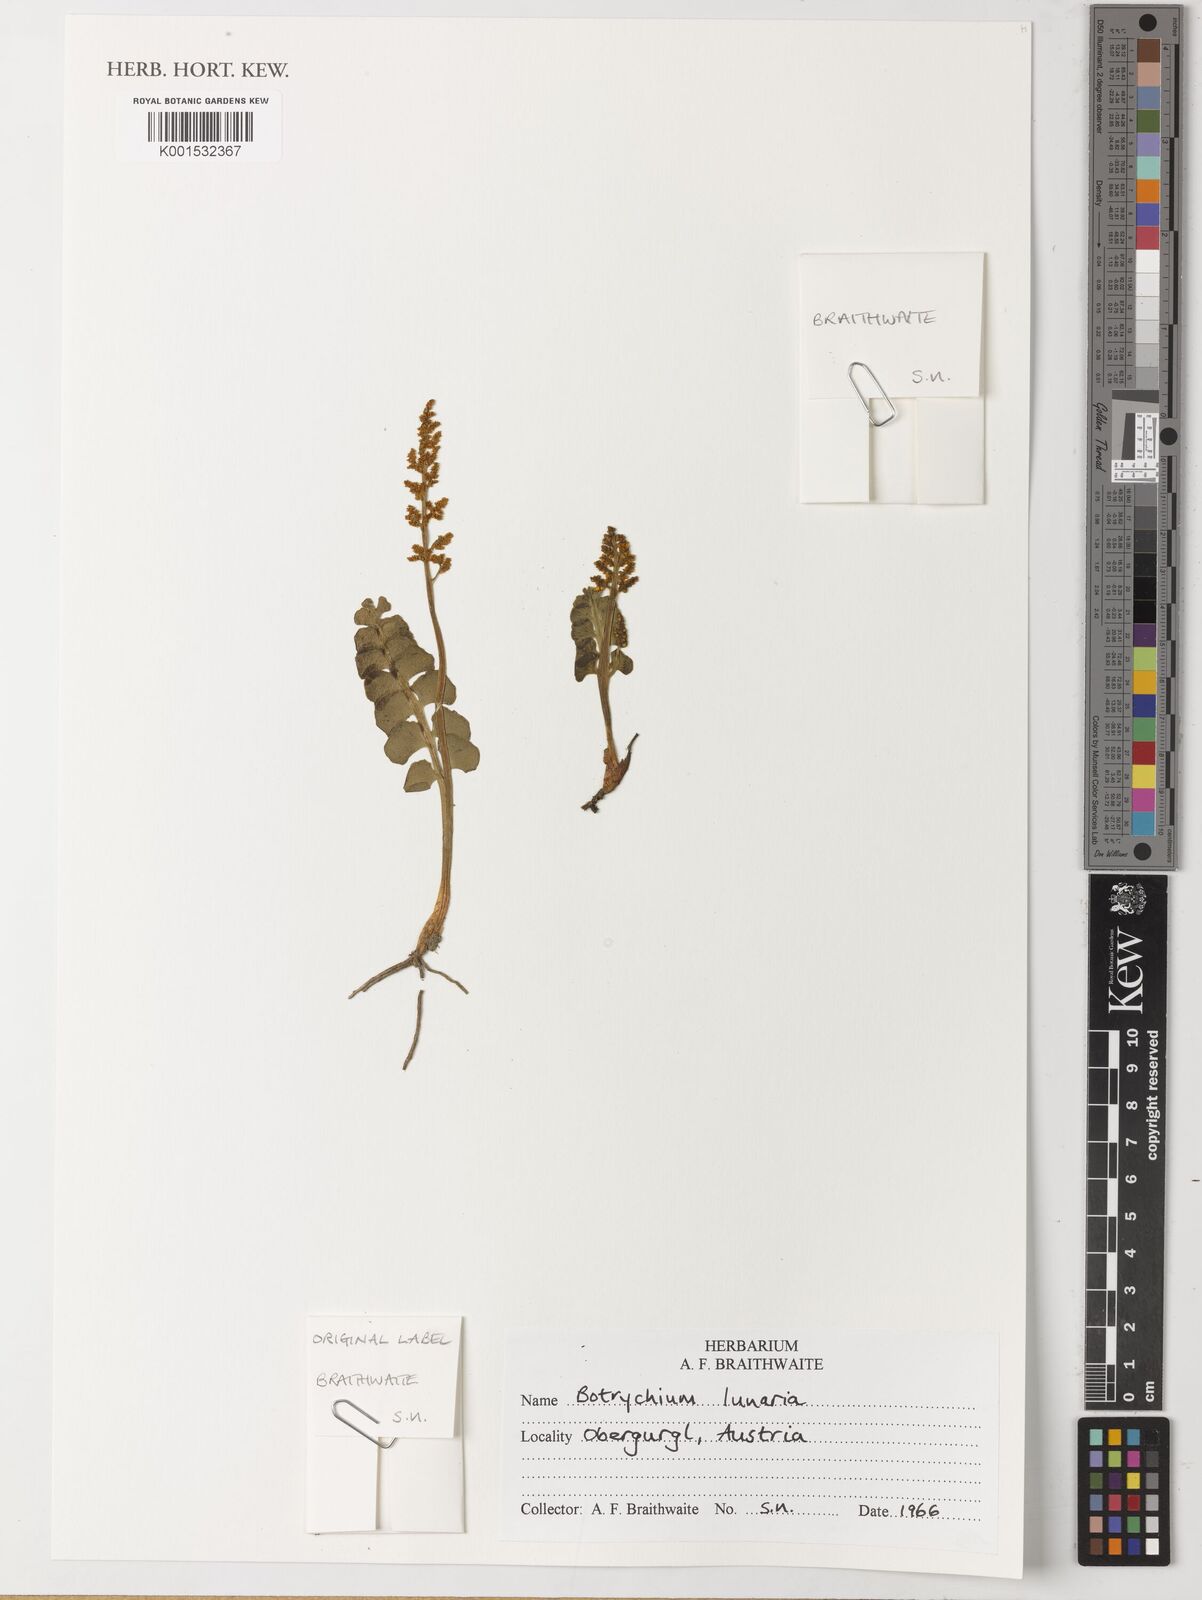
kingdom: Plantae
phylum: Tracheophyta
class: Polypodiopsida
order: Ophioglossales
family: Ophioglossaceae
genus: Botrychium
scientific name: Botrychium lunaria
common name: Moonwort
